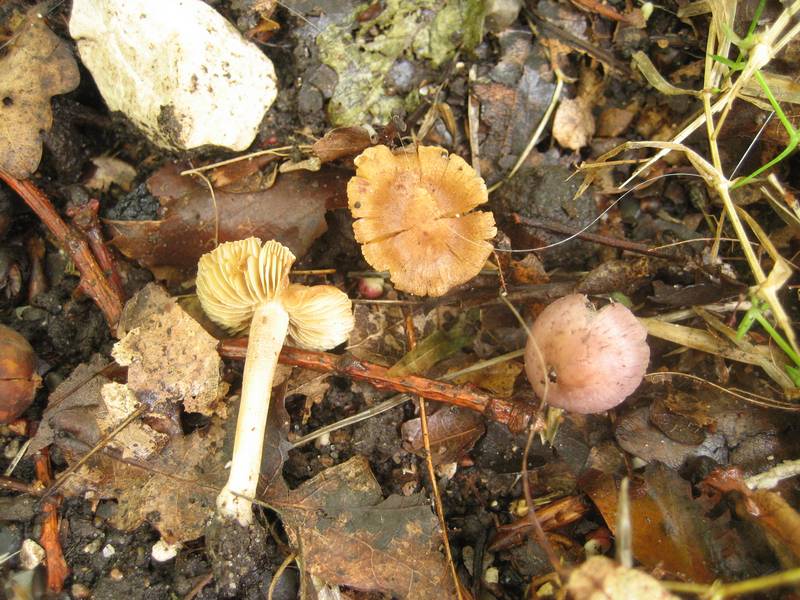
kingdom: Fungi
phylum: Basidiomycota
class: Agaricomycetes
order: Agaricales
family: Inocybaceae
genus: Inocybe
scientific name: Inocybe hirtella
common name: mandel-trævlhat
